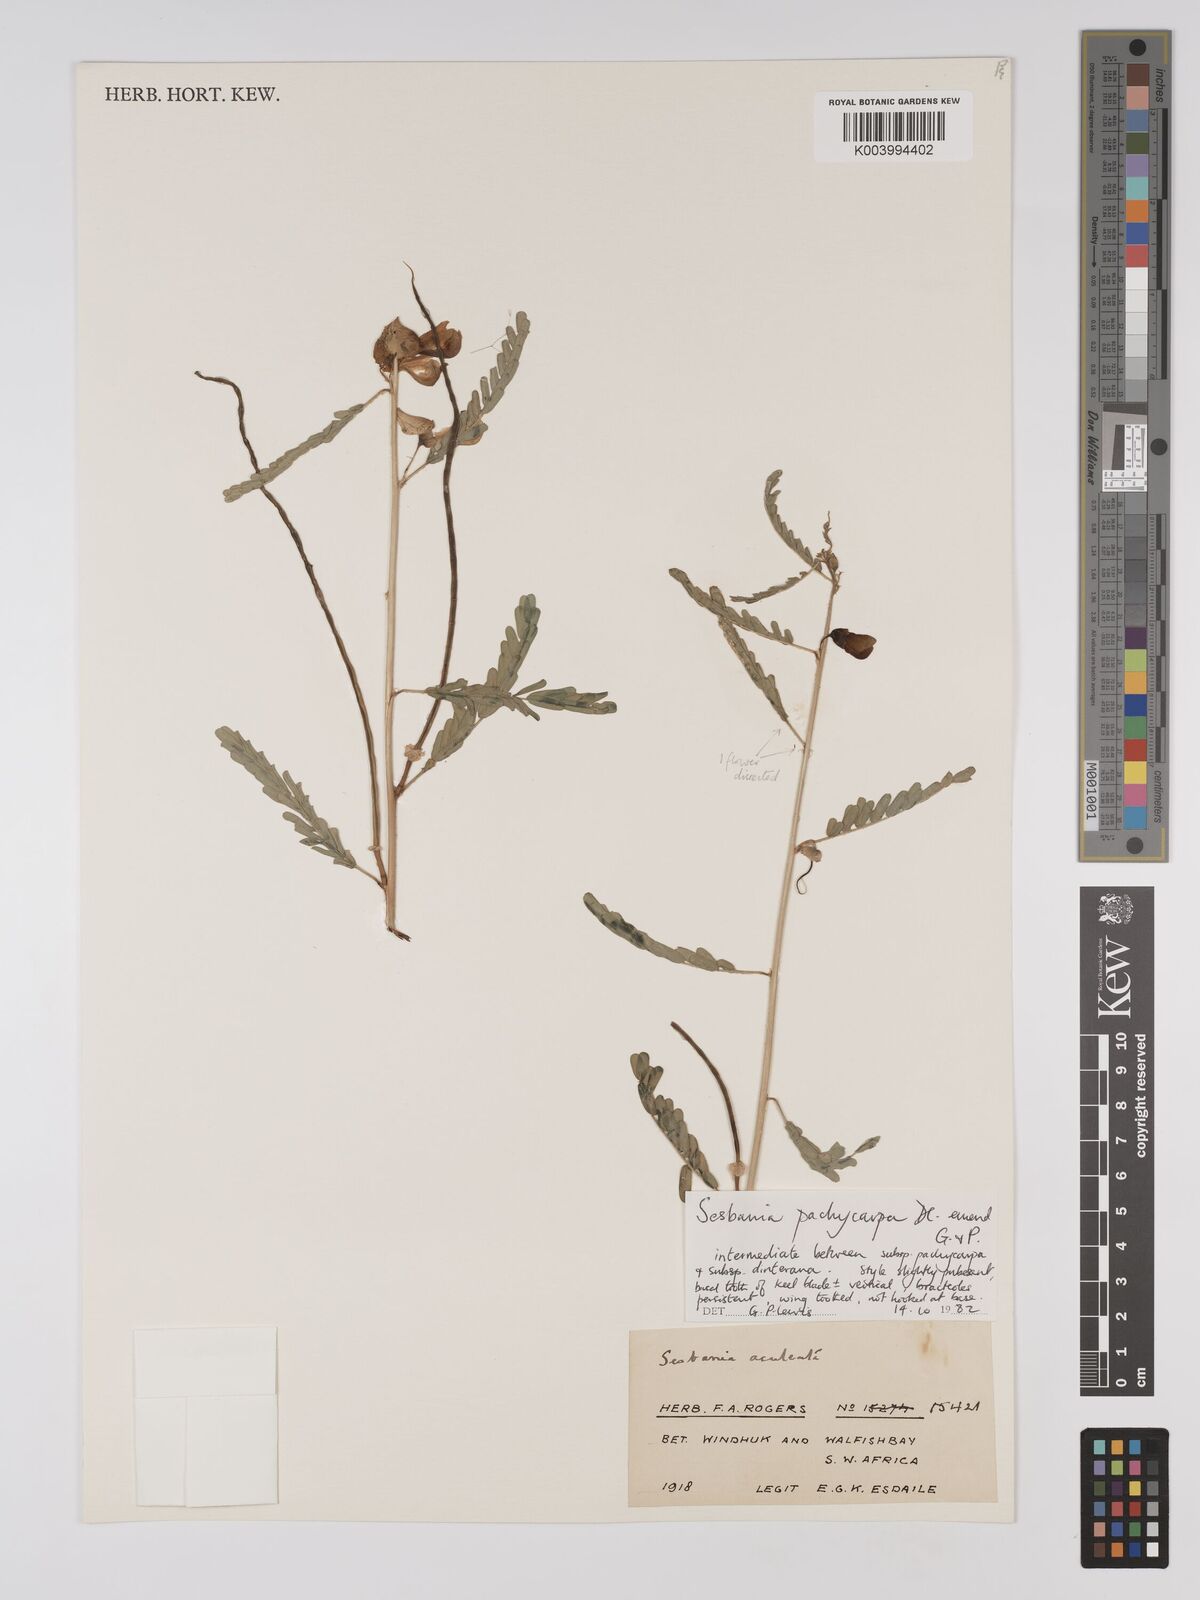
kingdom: Plantae
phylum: Tracheophyta
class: Magnoliopsida
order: Fabales
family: Fabaceae
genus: Sesbania
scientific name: Sesbania pachycarpa
